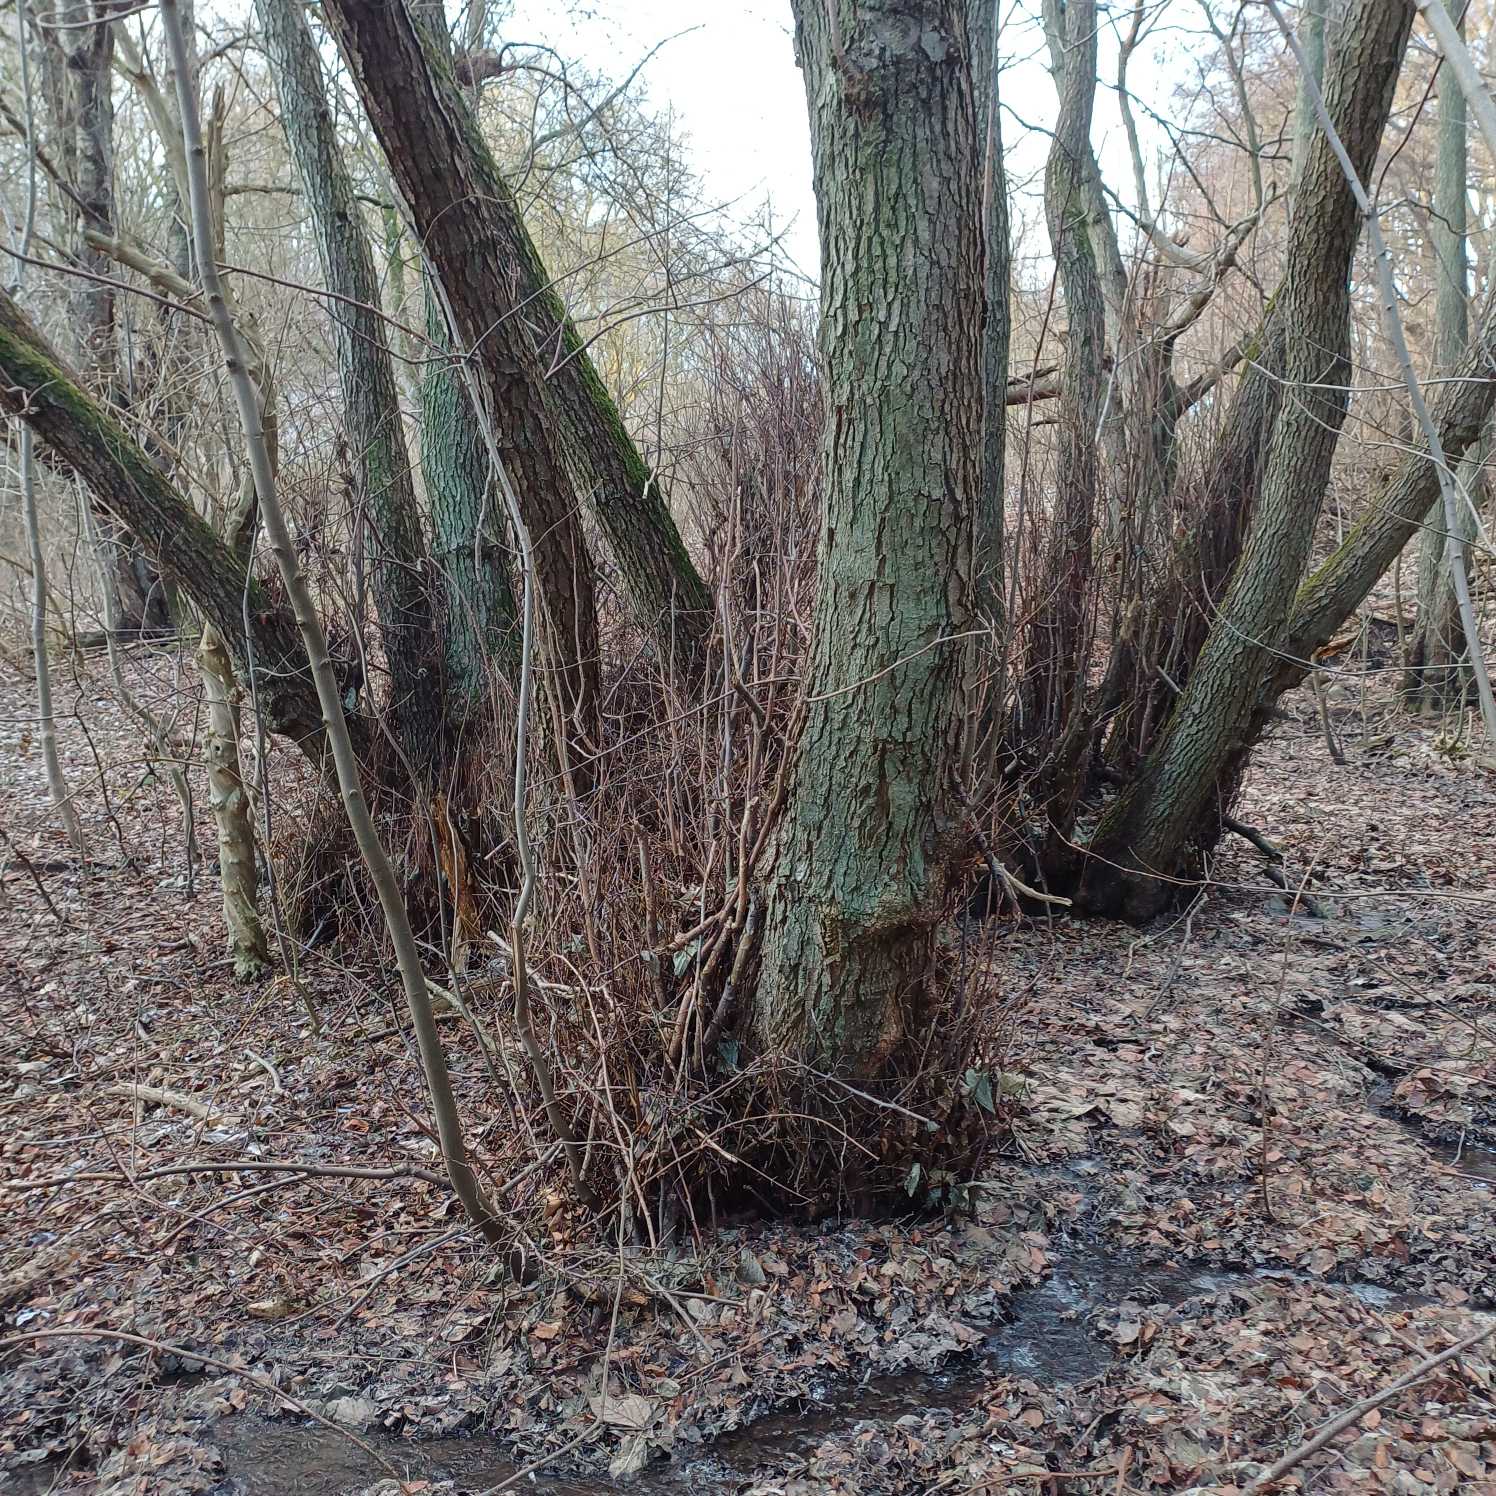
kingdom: Plantae
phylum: Tracheophyta
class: Magnoliopsida
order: Fagales
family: Betulaceae
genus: Alnus
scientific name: Alnus glutinosa
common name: Rød-el
